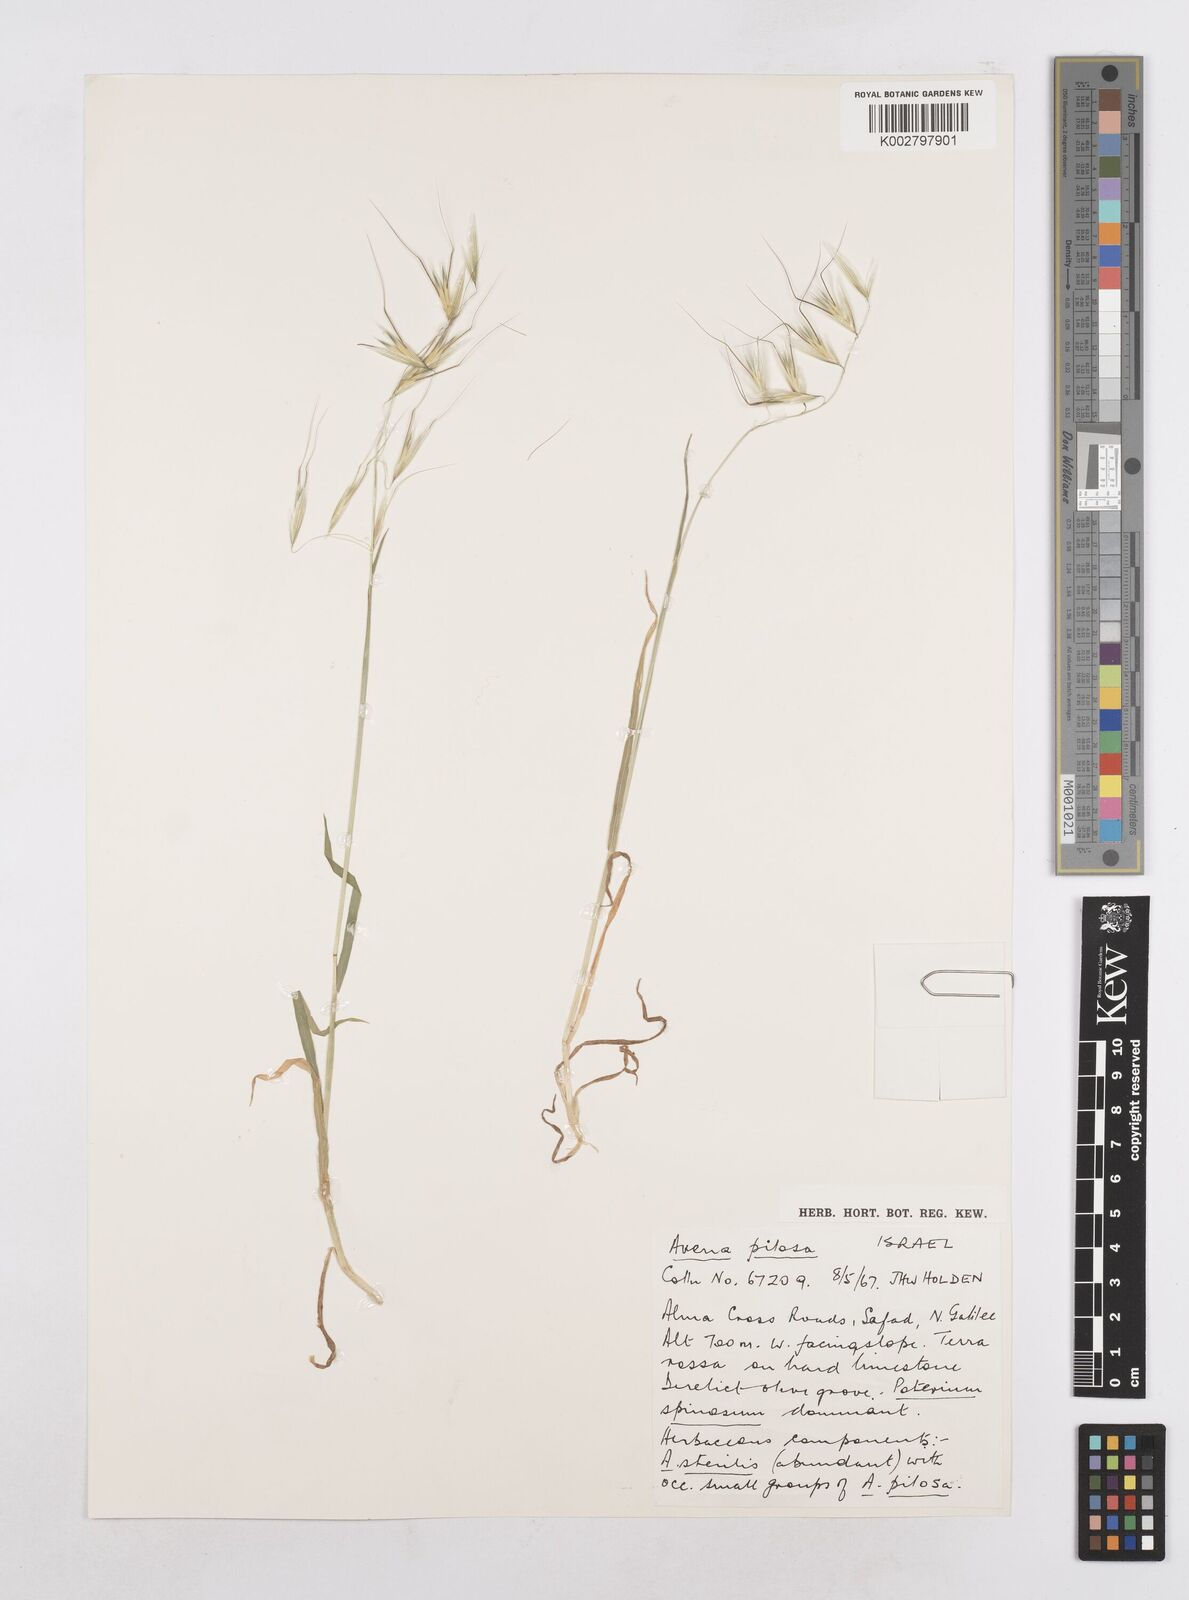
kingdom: Plantae
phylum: Tracheophyta
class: Liliopsida
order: Poales
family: Poaceae
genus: Avena
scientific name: Avena
